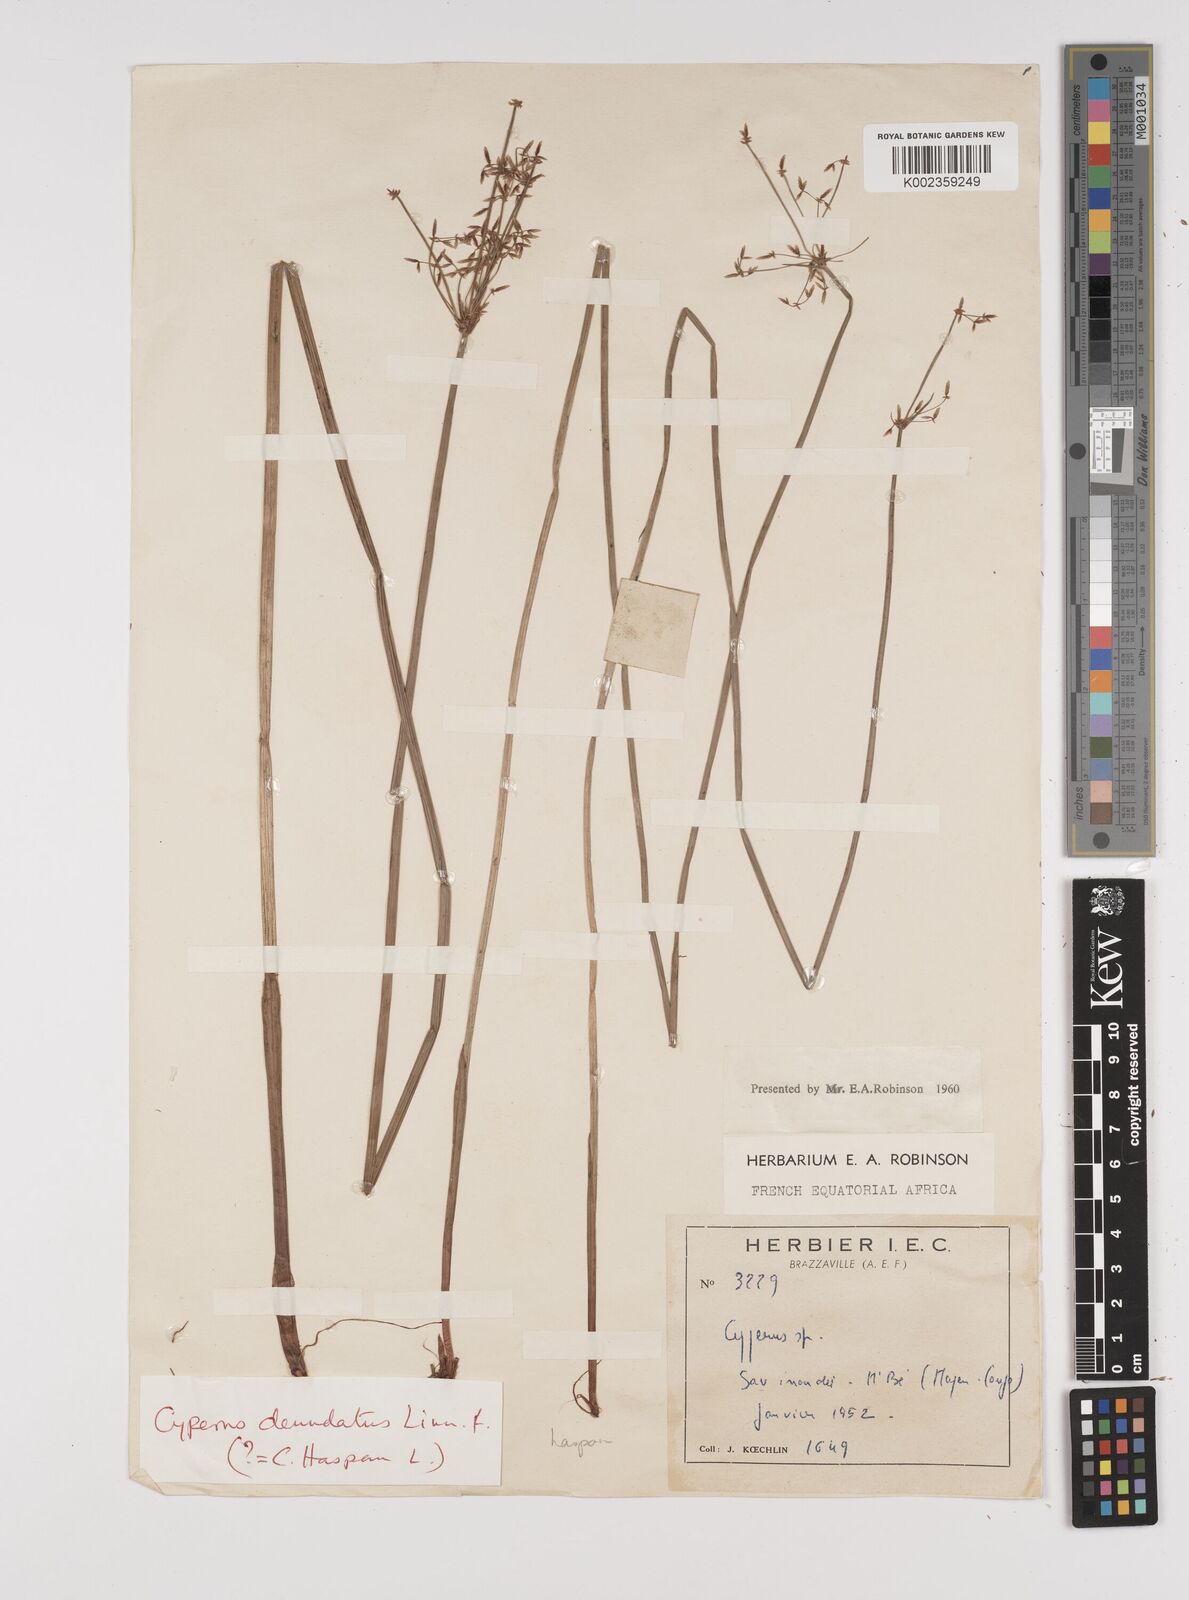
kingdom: Plantae
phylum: Tracheophyta
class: Liliopsida
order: Poales
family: Cyperaceae
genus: Cyperus
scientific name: Cyperus haspan
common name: Haspan flatsedge
